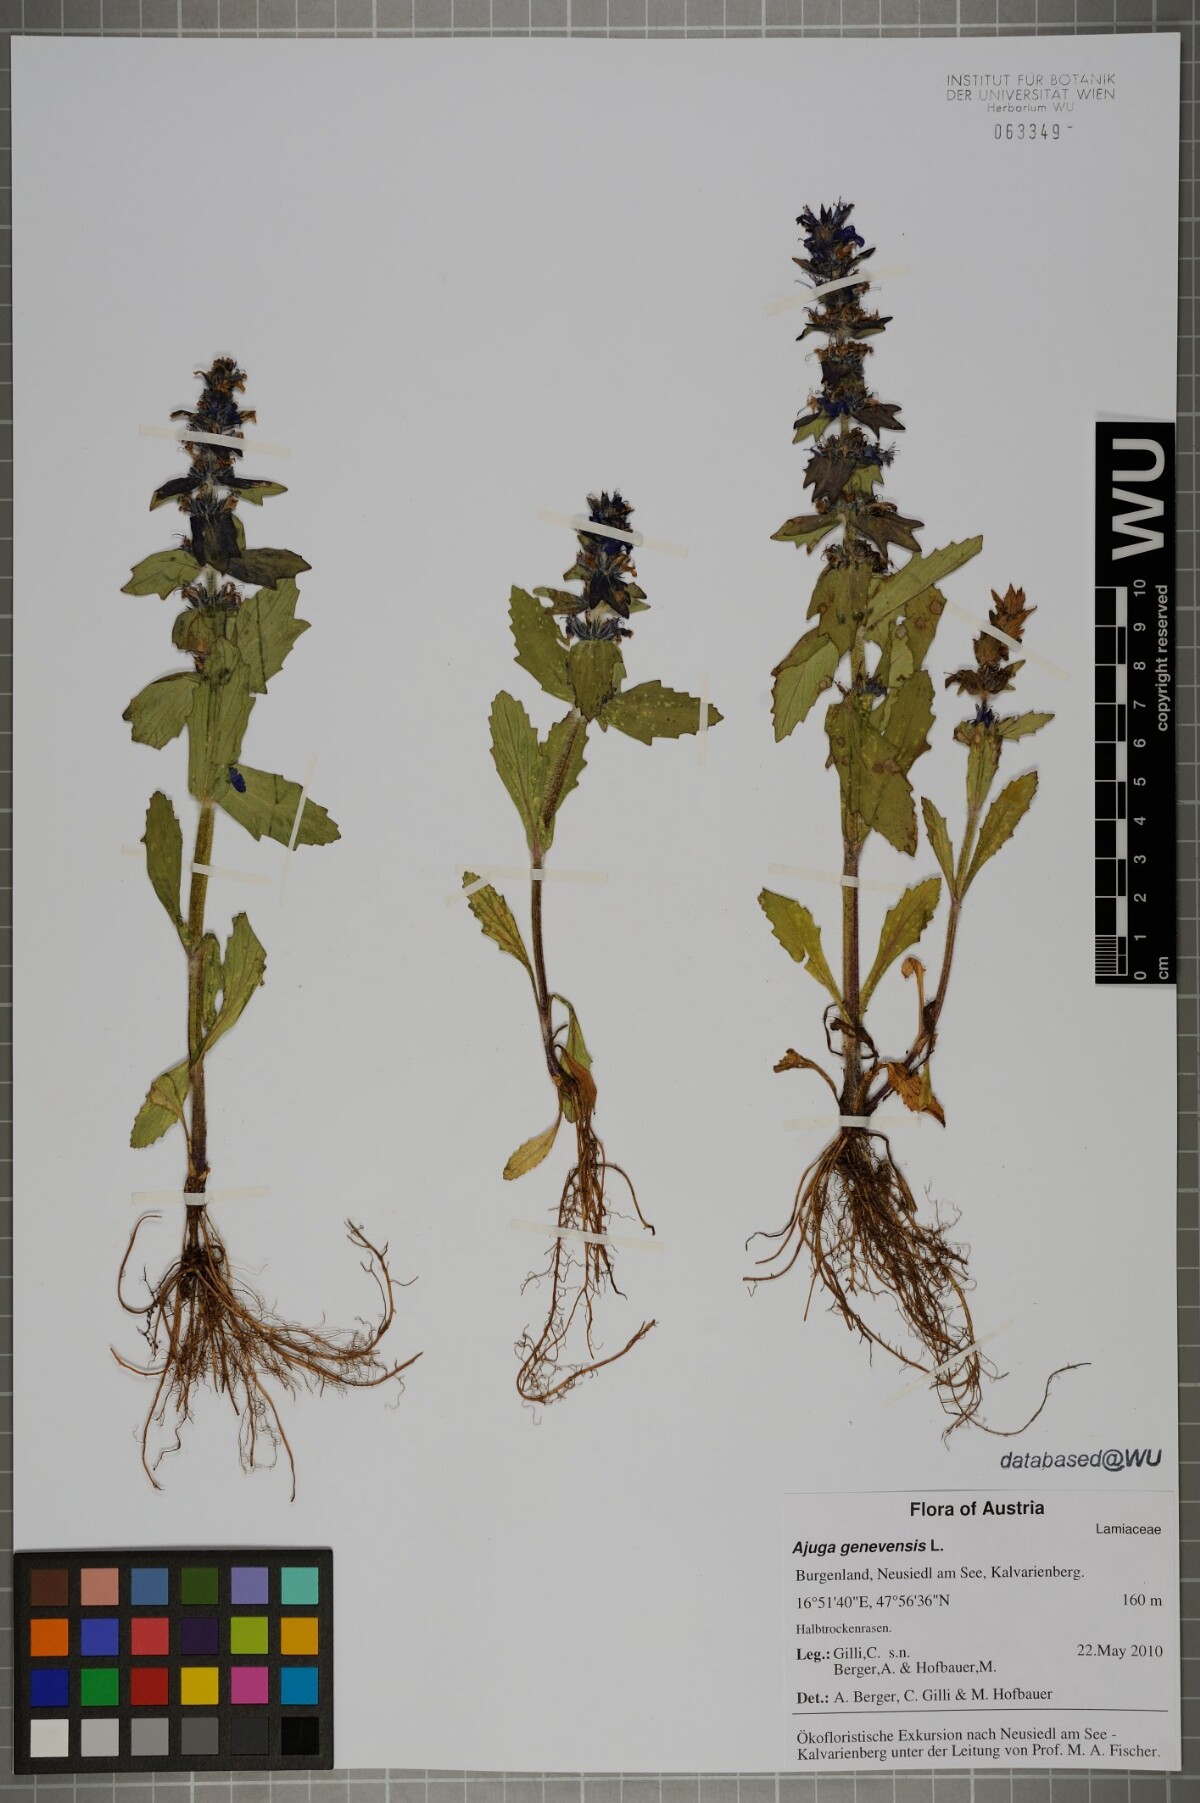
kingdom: Plantae
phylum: Tracheophyta
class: Magnoliopsida
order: Lamiales
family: Lamiaceae
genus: Ajuga
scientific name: Ajuga genevensis
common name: Blue bugle
